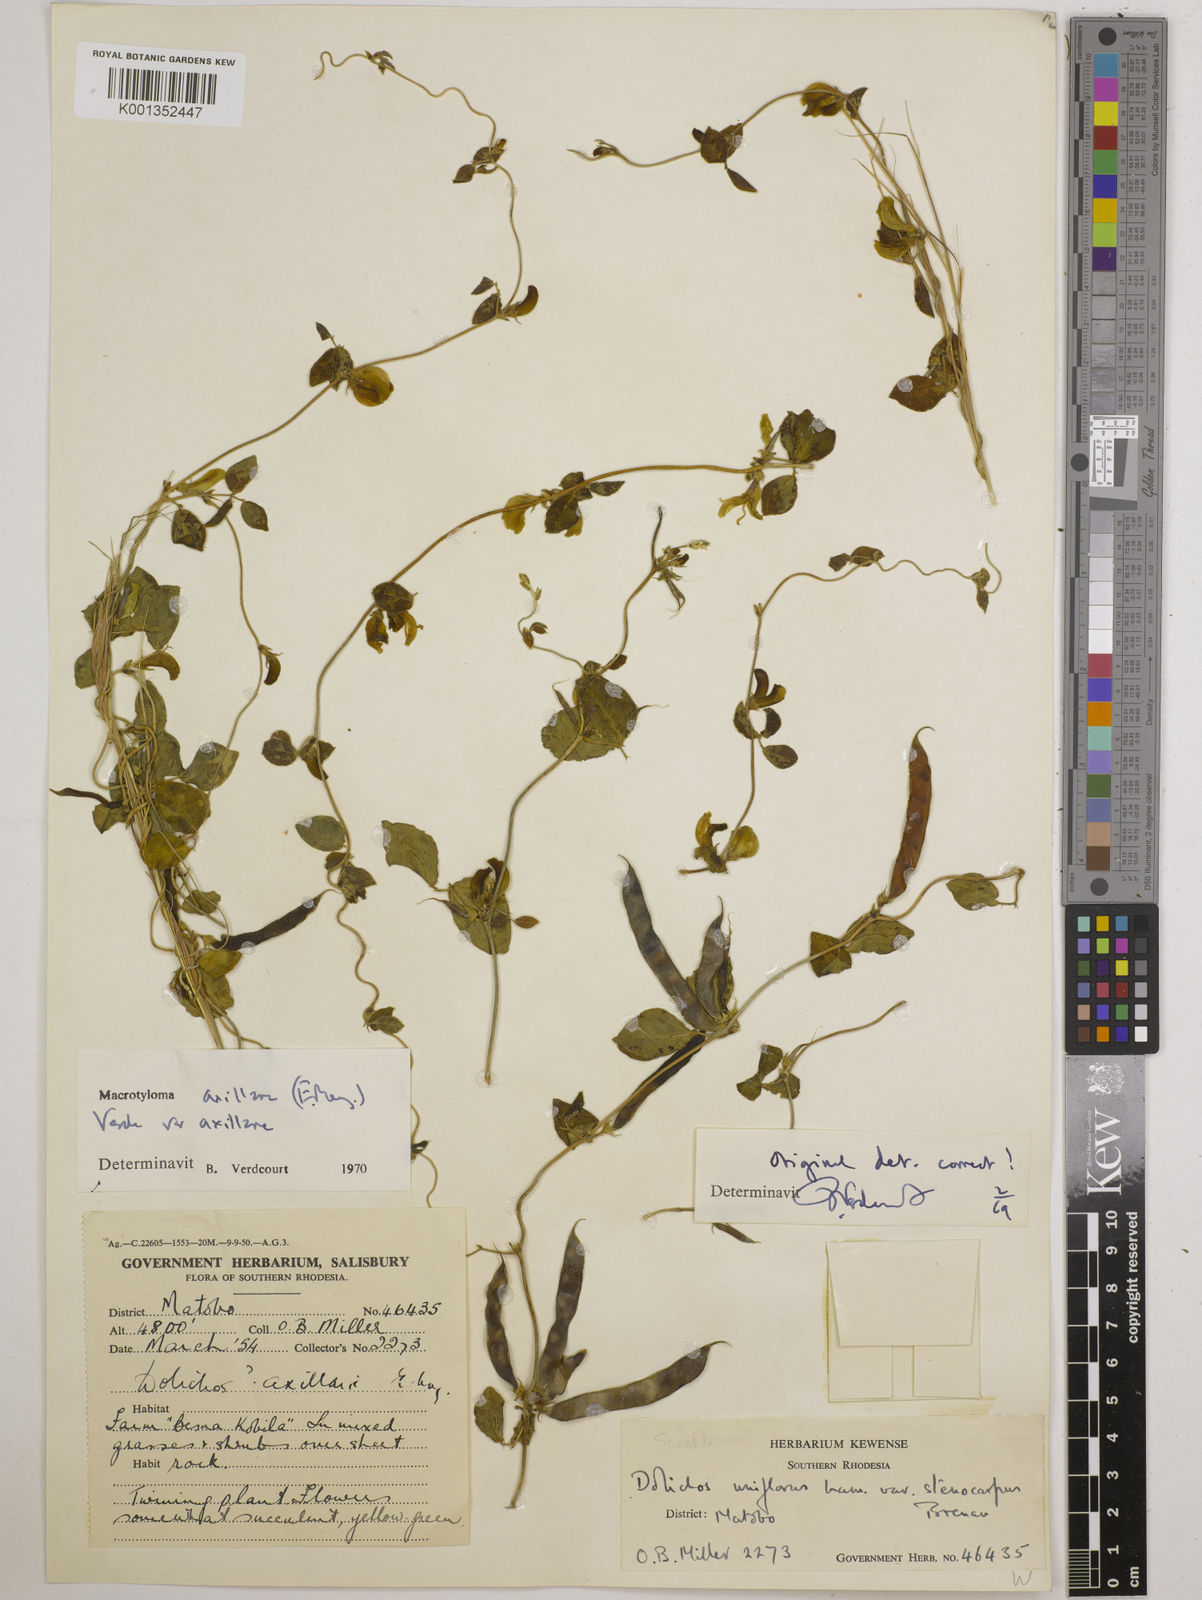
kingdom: Plantae
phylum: Tracheophyta
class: Magnoliopsida
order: Fabales
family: Fabaceae
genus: Macrotyloma
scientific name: Macrotyloma axillare
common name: Perennial horsegram
